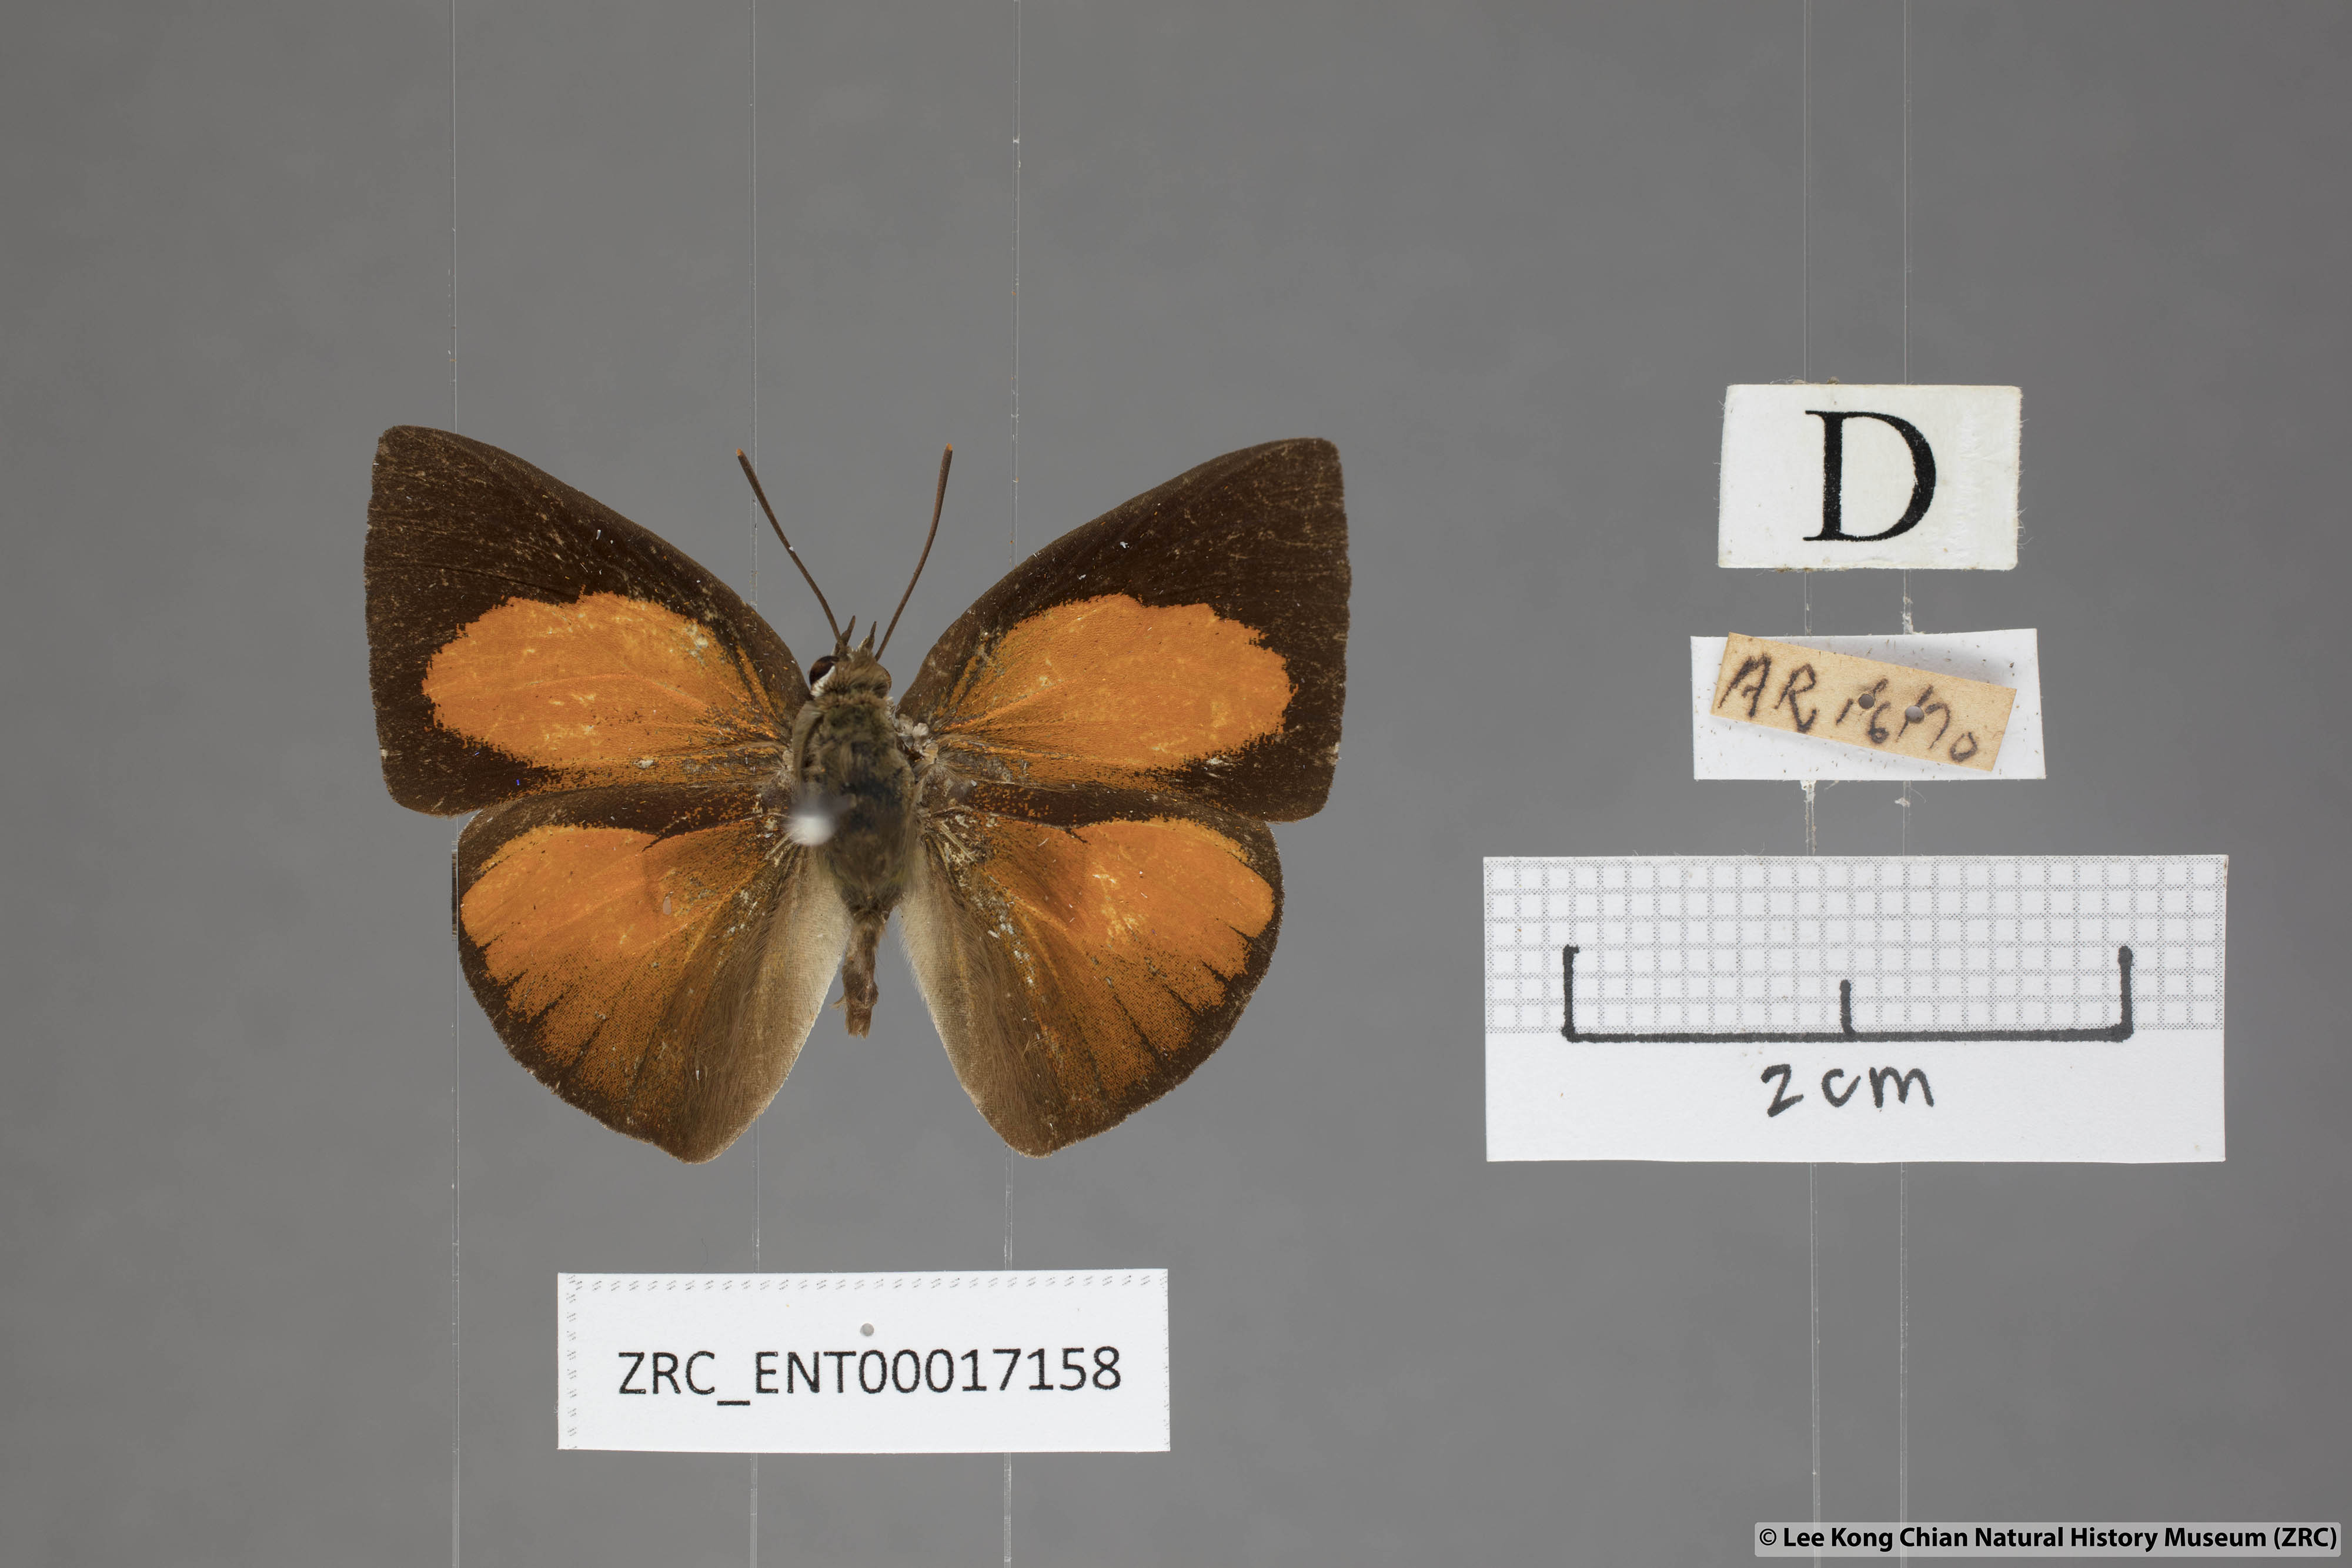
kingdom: Animalia
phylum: Arthropoda
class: Insecta
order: Lepidoptera
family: Lycaenidae
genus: Curetis
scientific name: Curetis sperthis
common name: Rounded sunbeam
